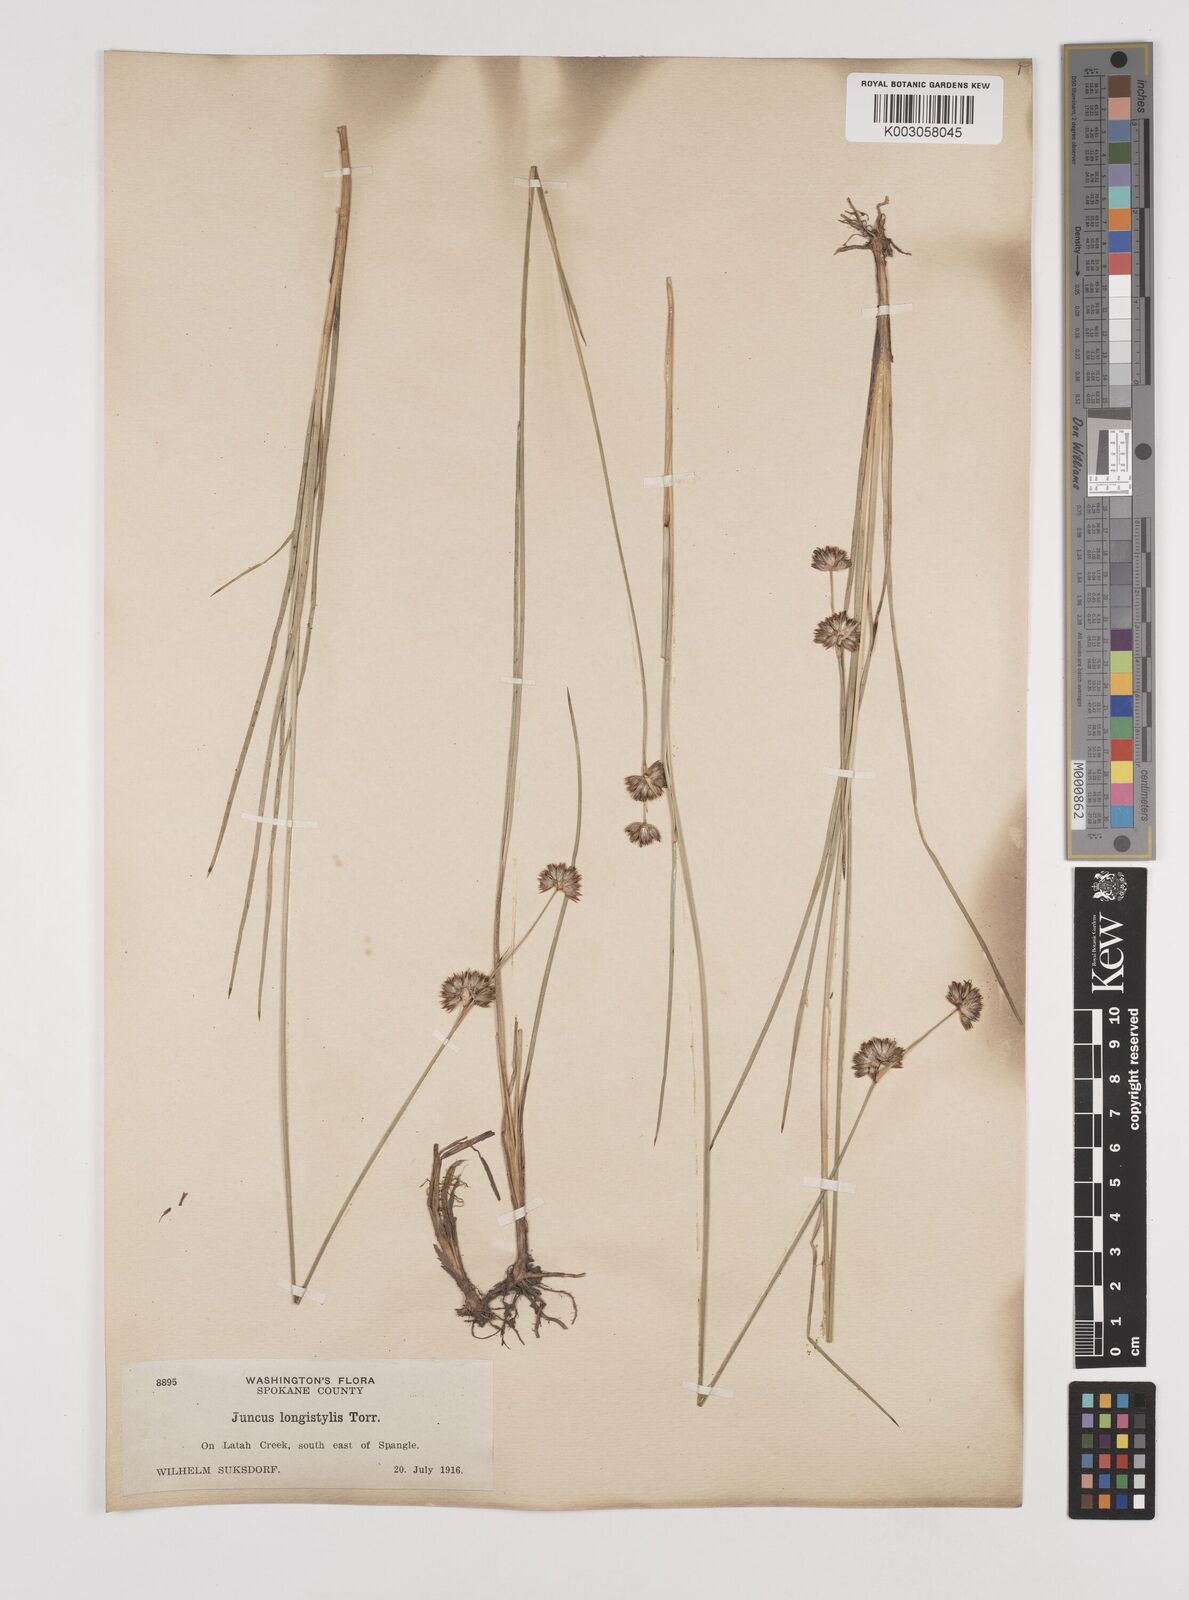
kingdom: Plantae
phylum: Tracheophyta
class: Liliopsida
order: Poales
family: Juncaceae
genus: Juncus
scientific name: Juncus longistylis
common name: Long-style rush
